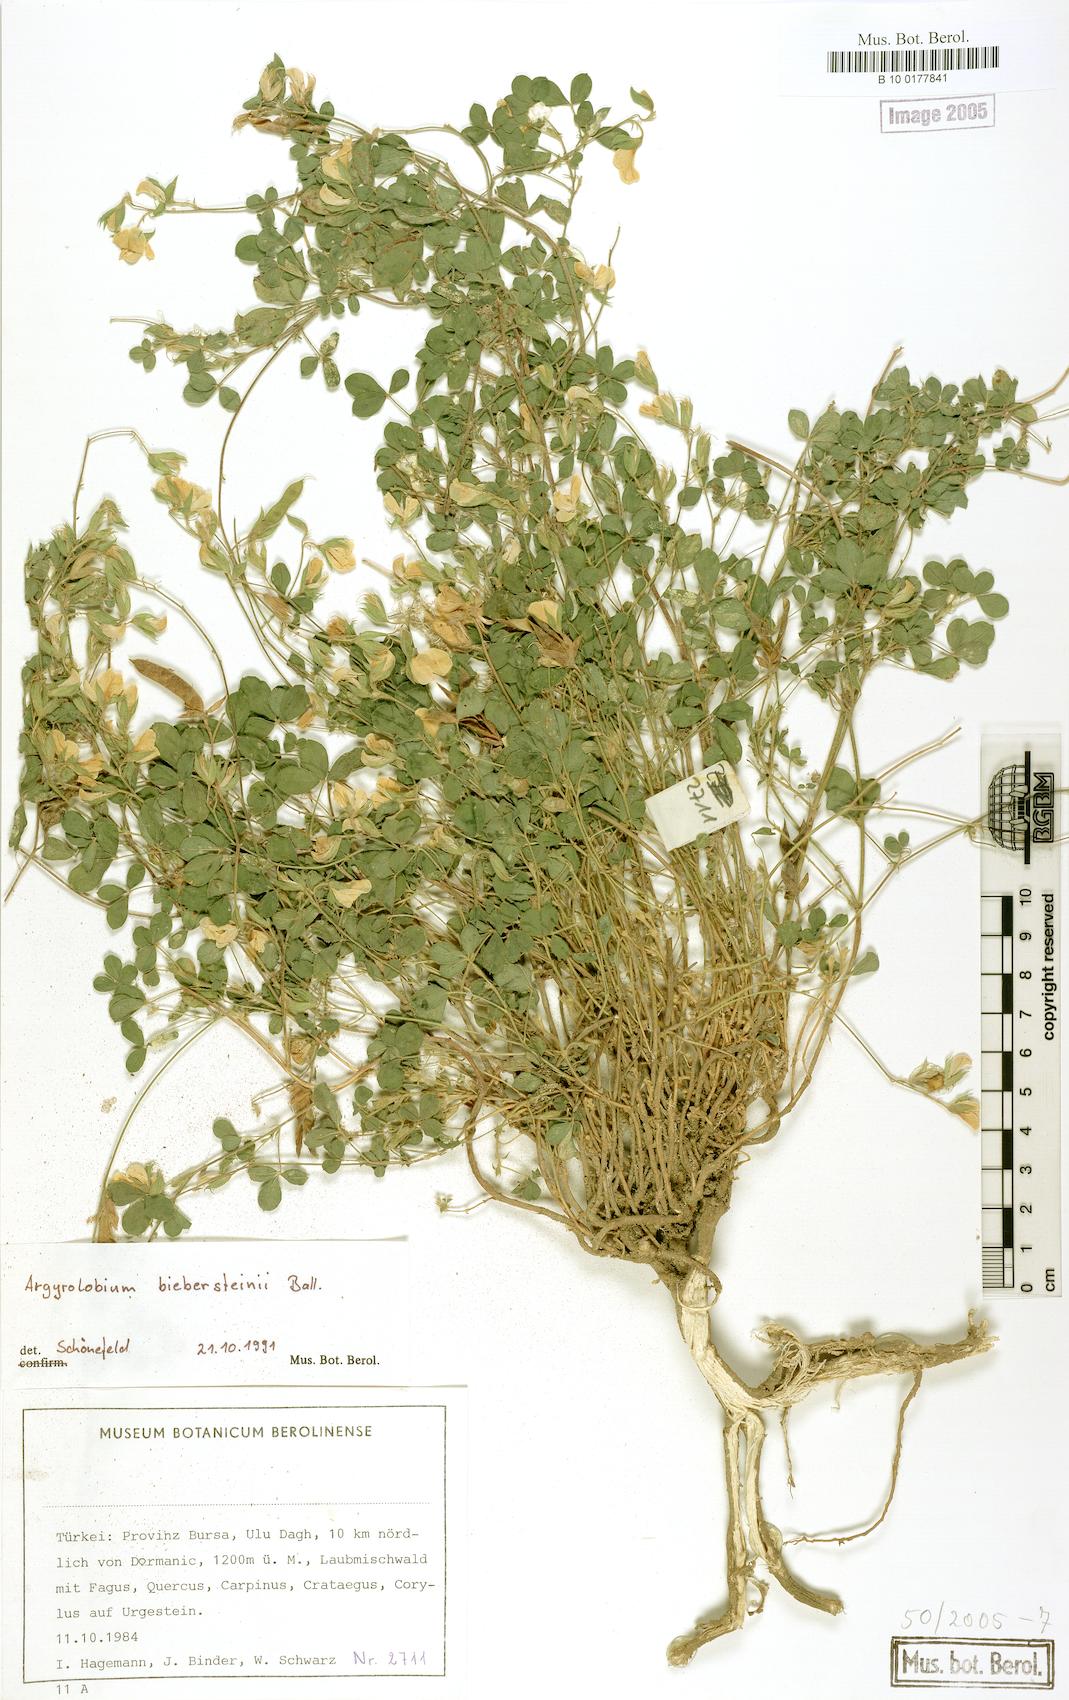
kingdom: Plantae
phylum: Tracheophyta
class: Magnoliopsida
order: Fabales
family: Fabaceae
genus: Argyrolobium
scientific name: Argyrolobium biebersteinii
